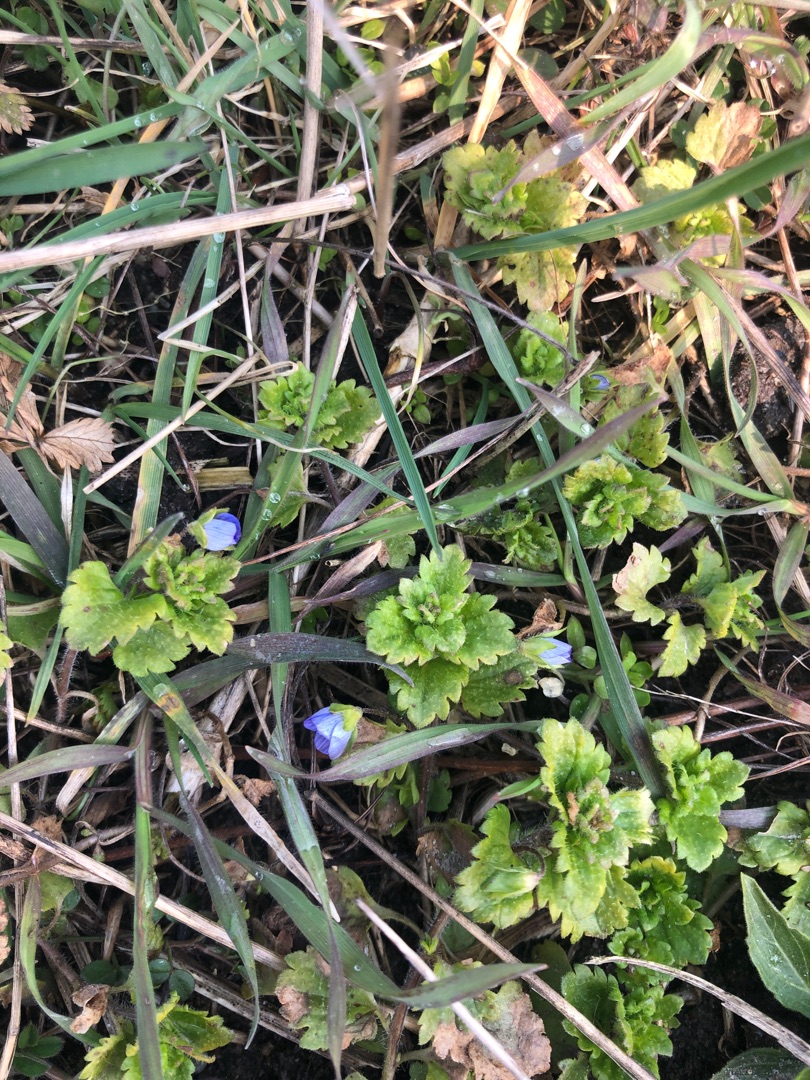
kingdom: Plantae
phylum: Tracheophyta
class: Magnoliopsida
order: Lamiales
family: Plantaginaceae
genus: Veronica
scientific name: Veronica persica
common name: Storkronet ærenpris
